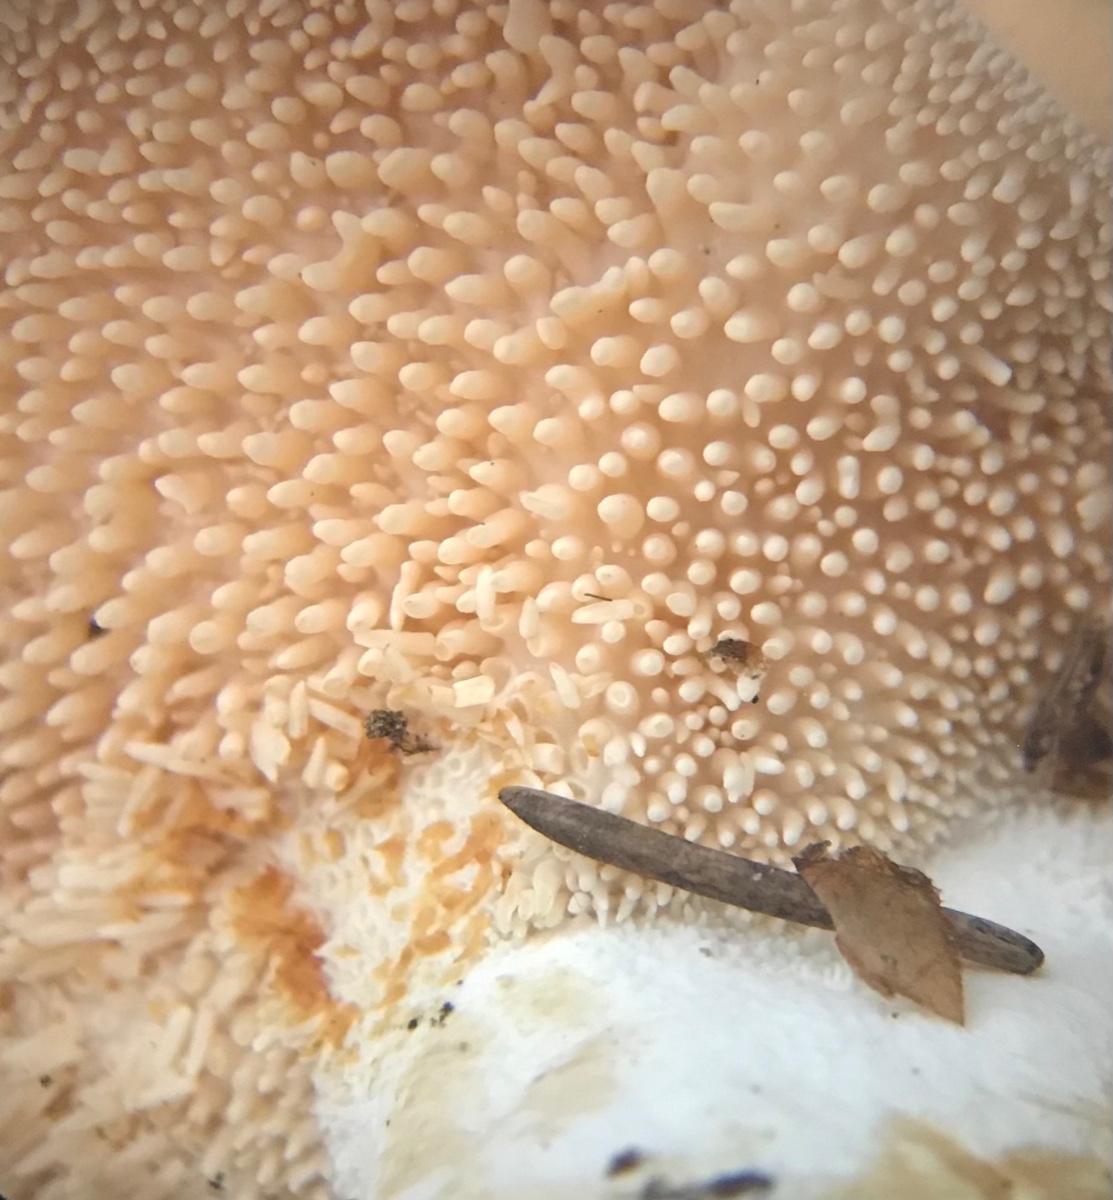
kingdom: Fungi
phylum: Basidiomycota
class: Agaricomycetes
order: Cantharellales
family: Hydnaceae
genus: Hydnum
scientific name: Hydnum
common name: pigsvamp
